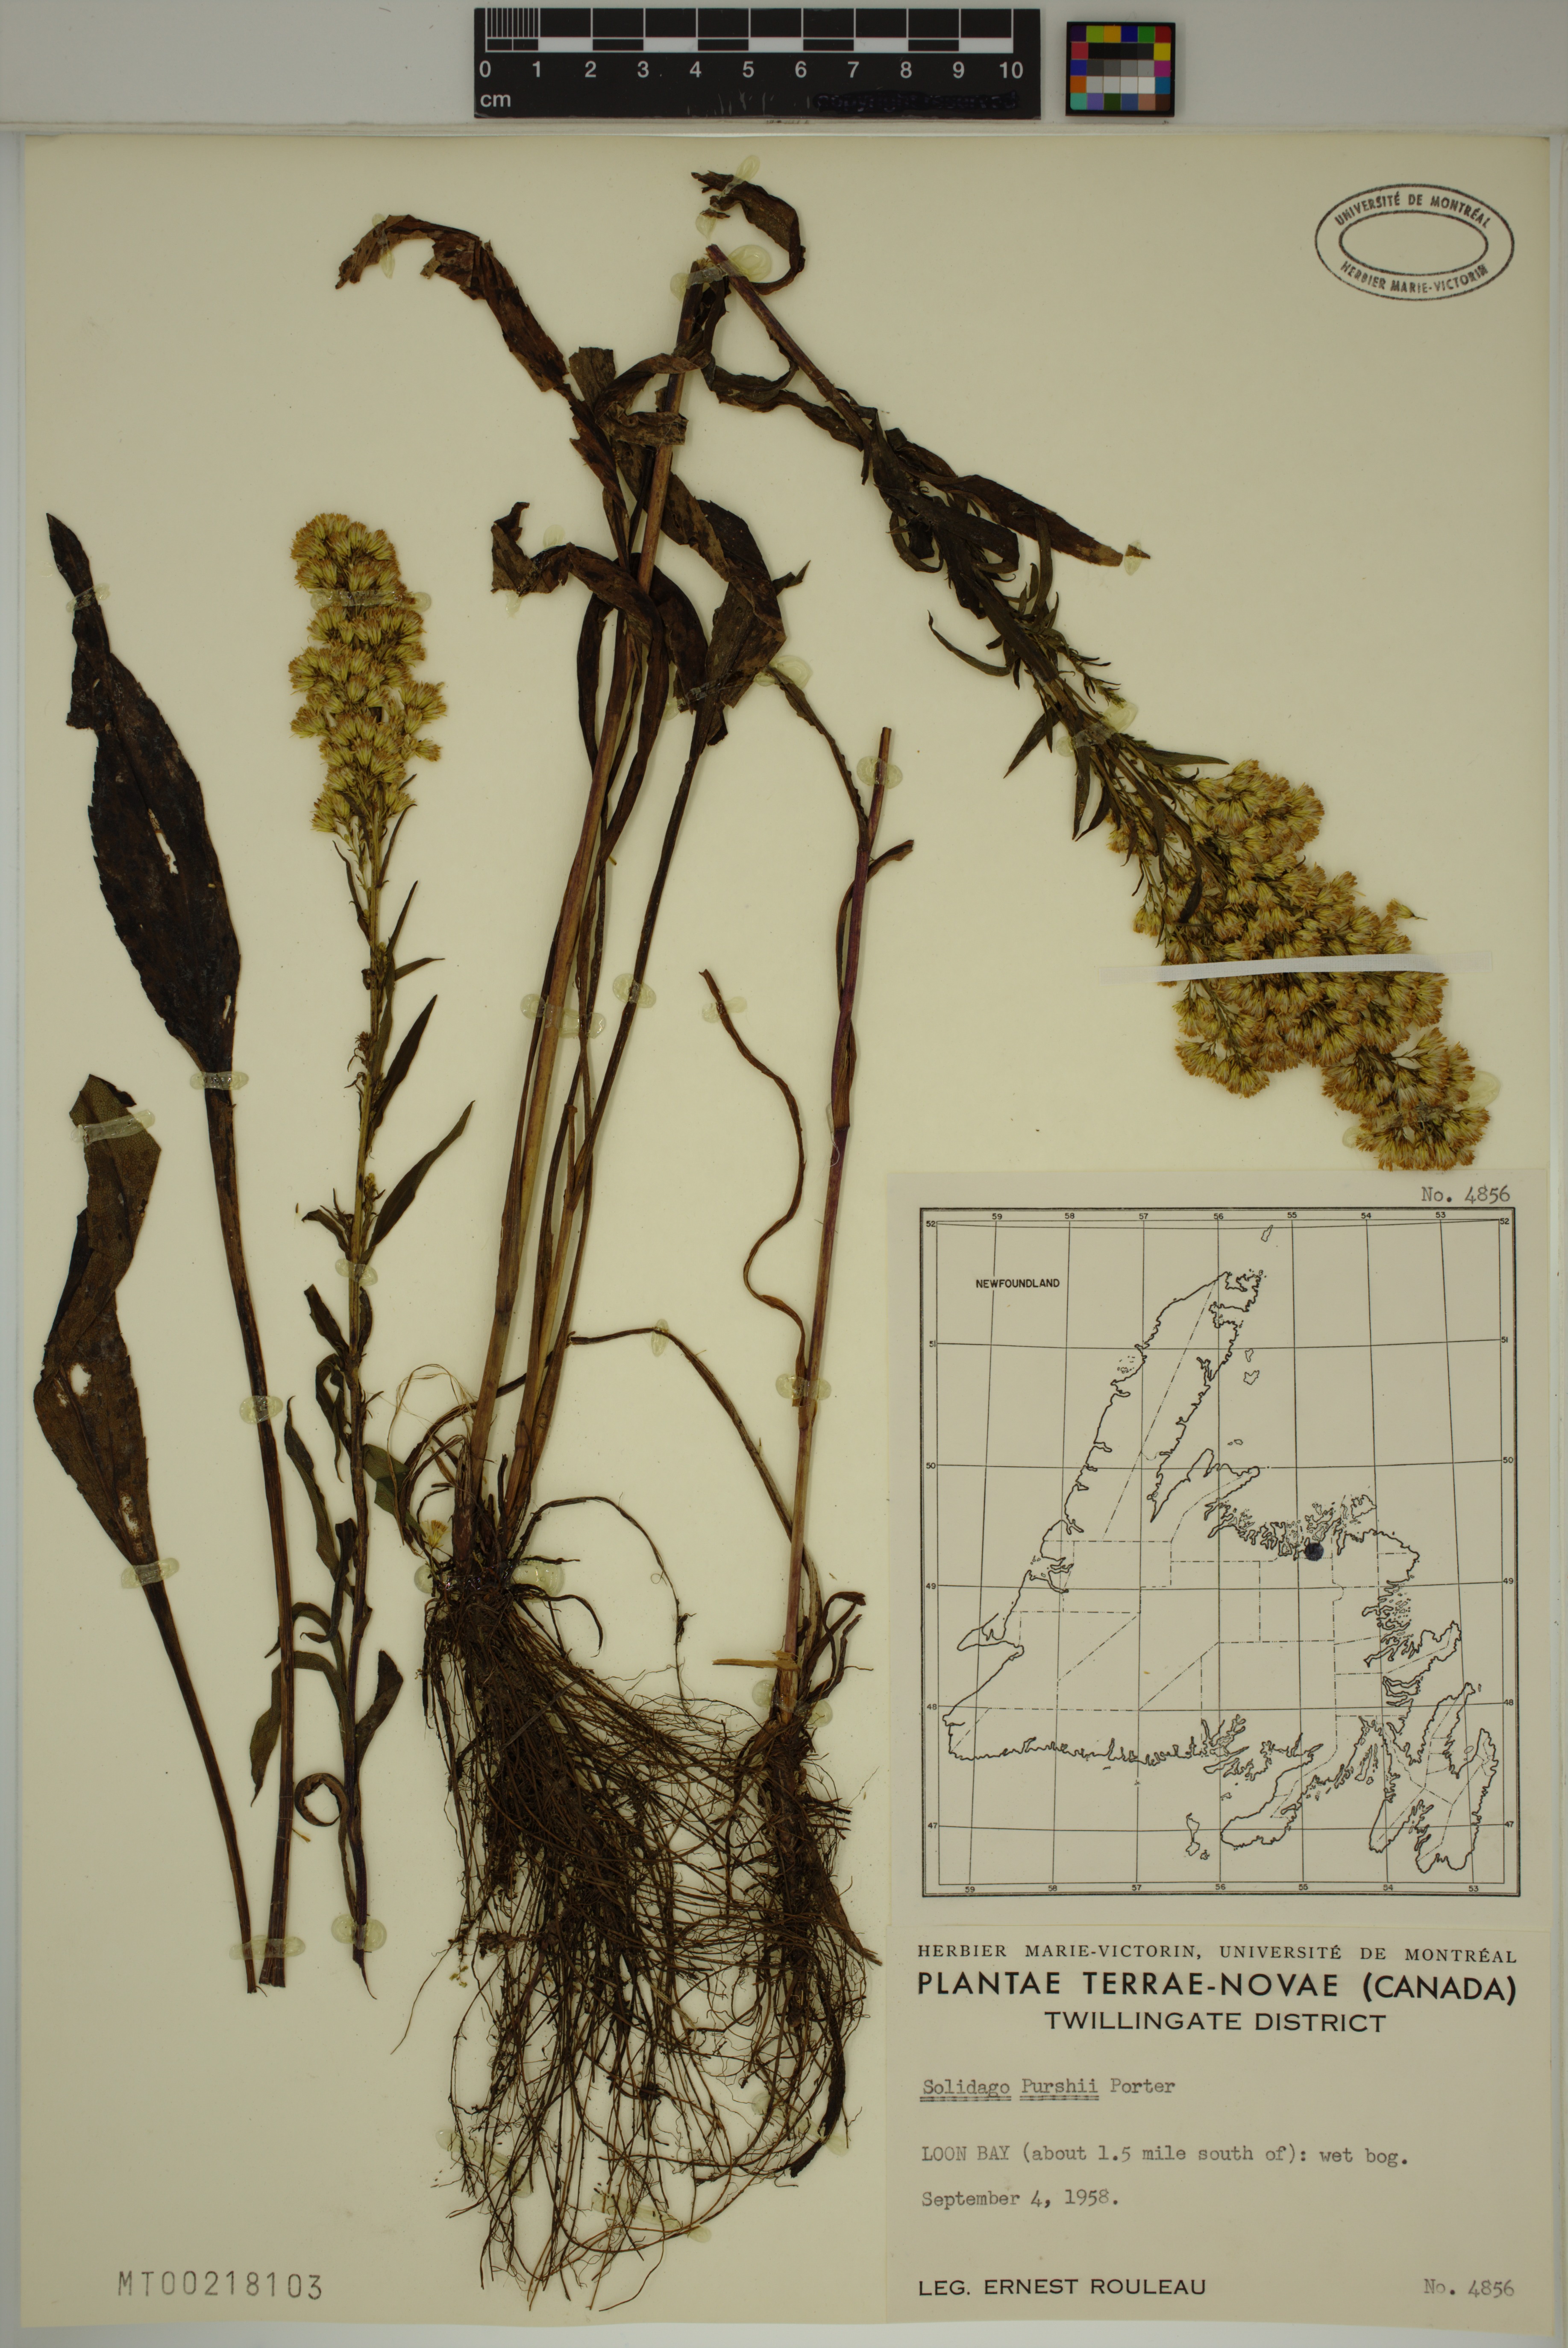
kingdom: Plantae
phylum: Tracheophyta
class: Magnoliopsida
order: Asterales
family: Asteraceae
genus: Solidago
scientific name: Solidago uliginosa
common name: Bog goldenrod
